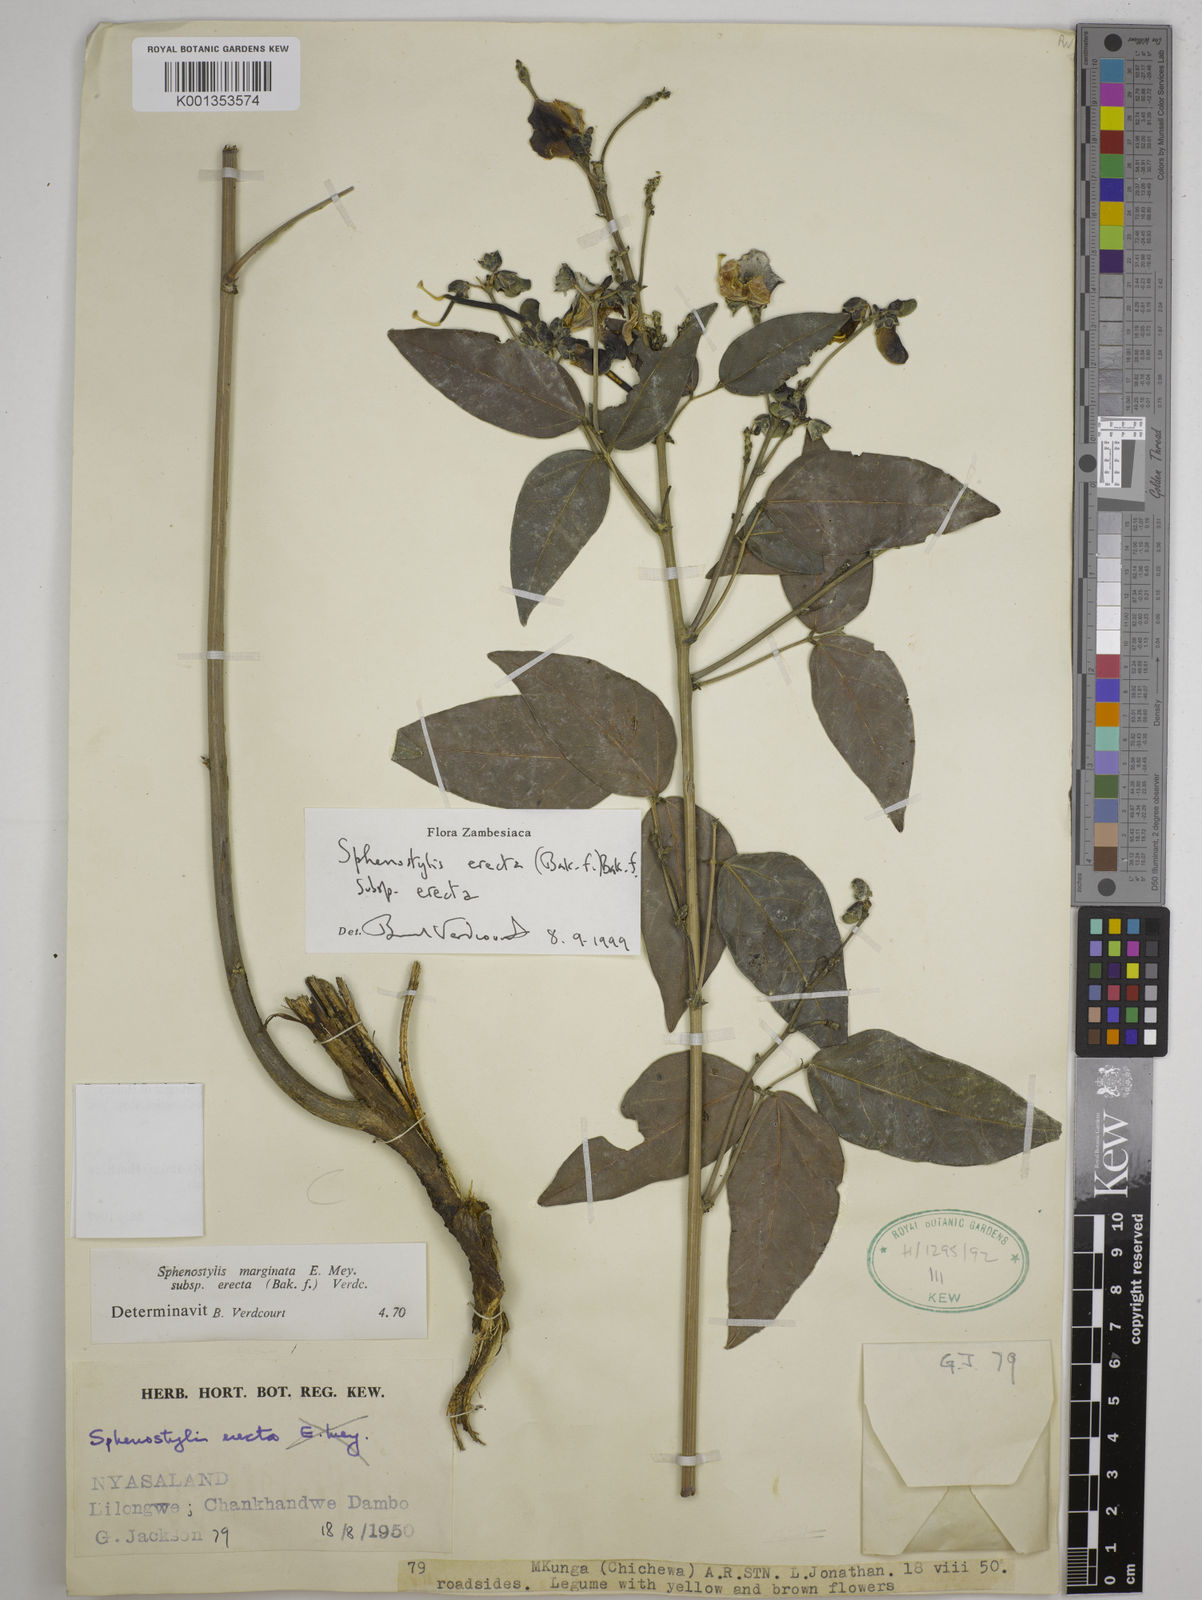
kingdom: Plantae
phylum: Tracheophyta
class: Magnoliopsida
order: Fabales
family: Fabaceae
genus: Sphenostylis
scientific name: Sphenostylis erecta
